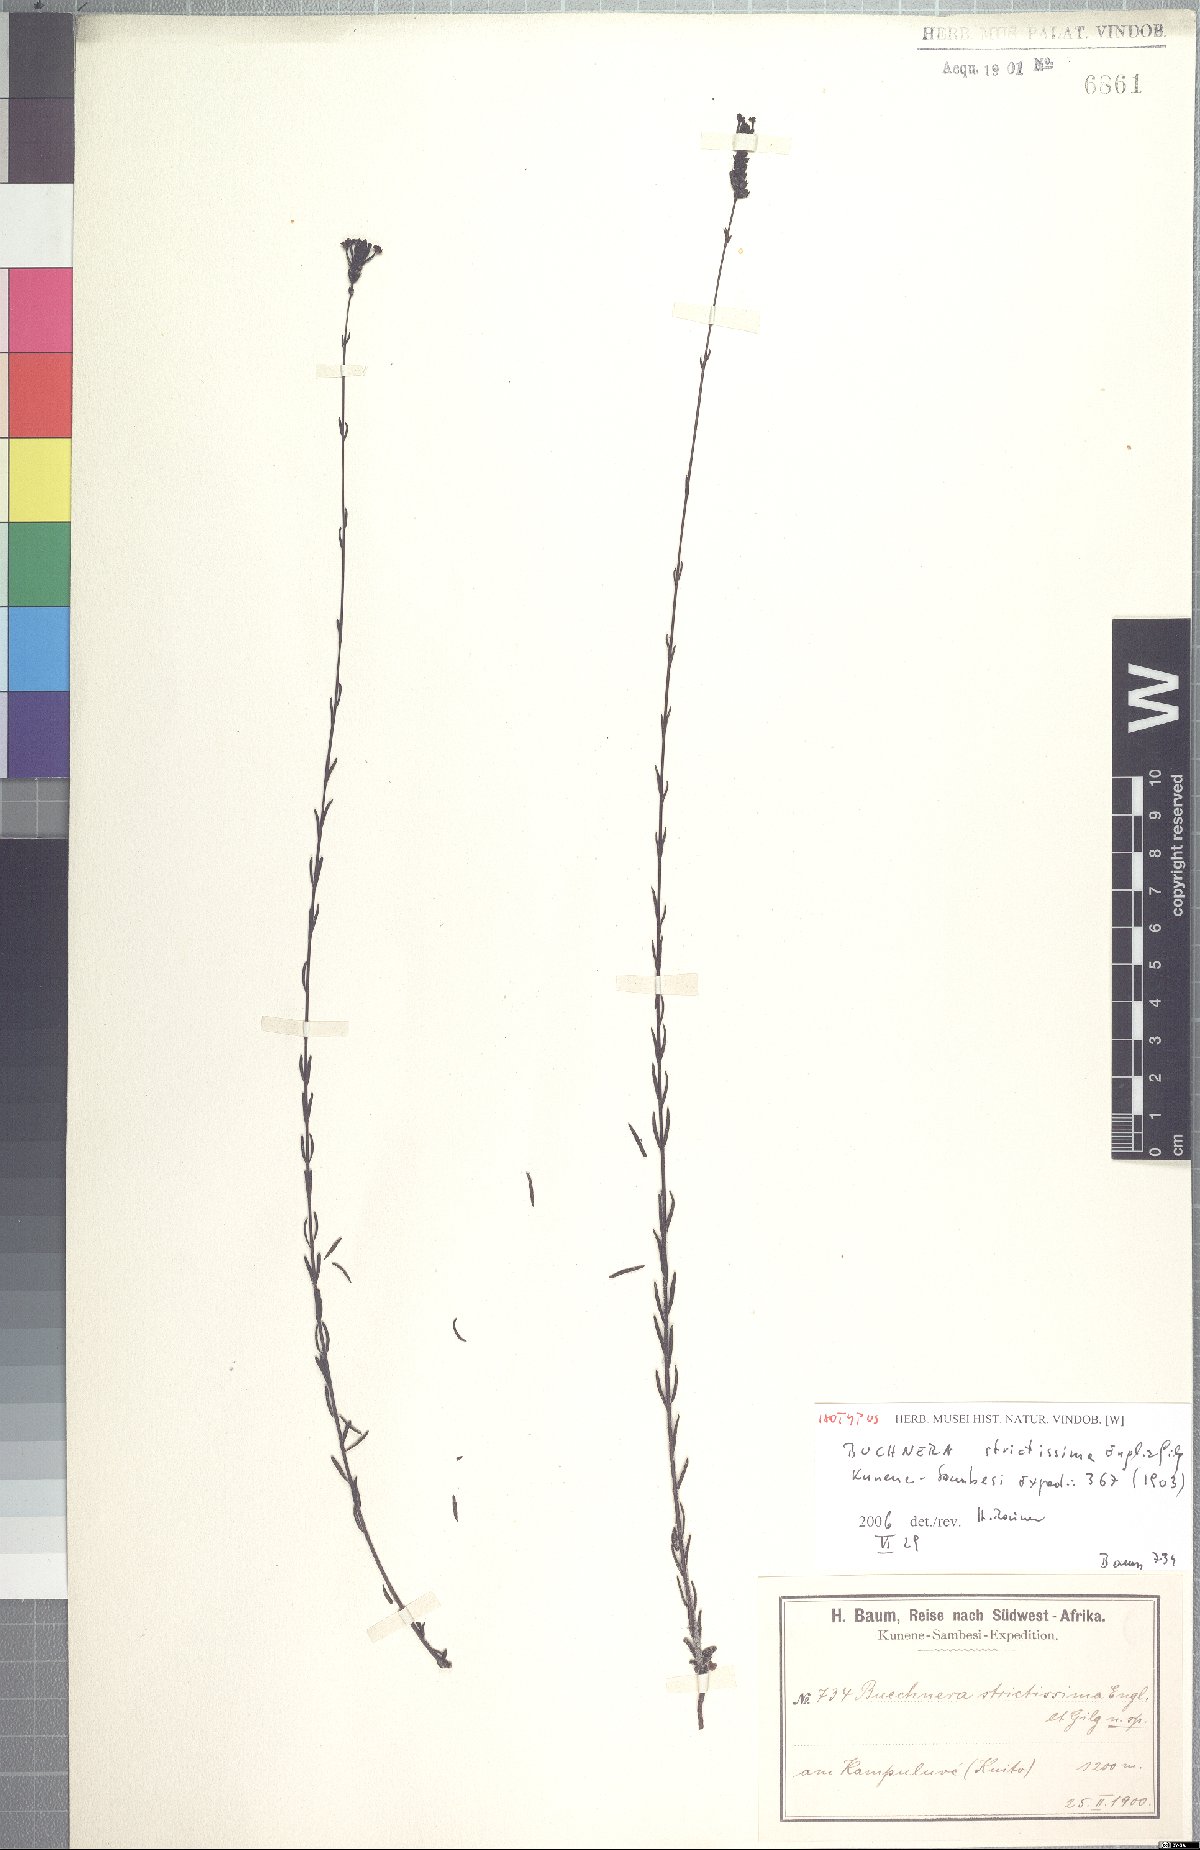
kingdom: Plantae
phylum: Tracheophyta
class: Magnoliopsida
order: Lamiales
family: Orobanchaceae
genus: Buchnera
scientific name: Buchnera strictissima
